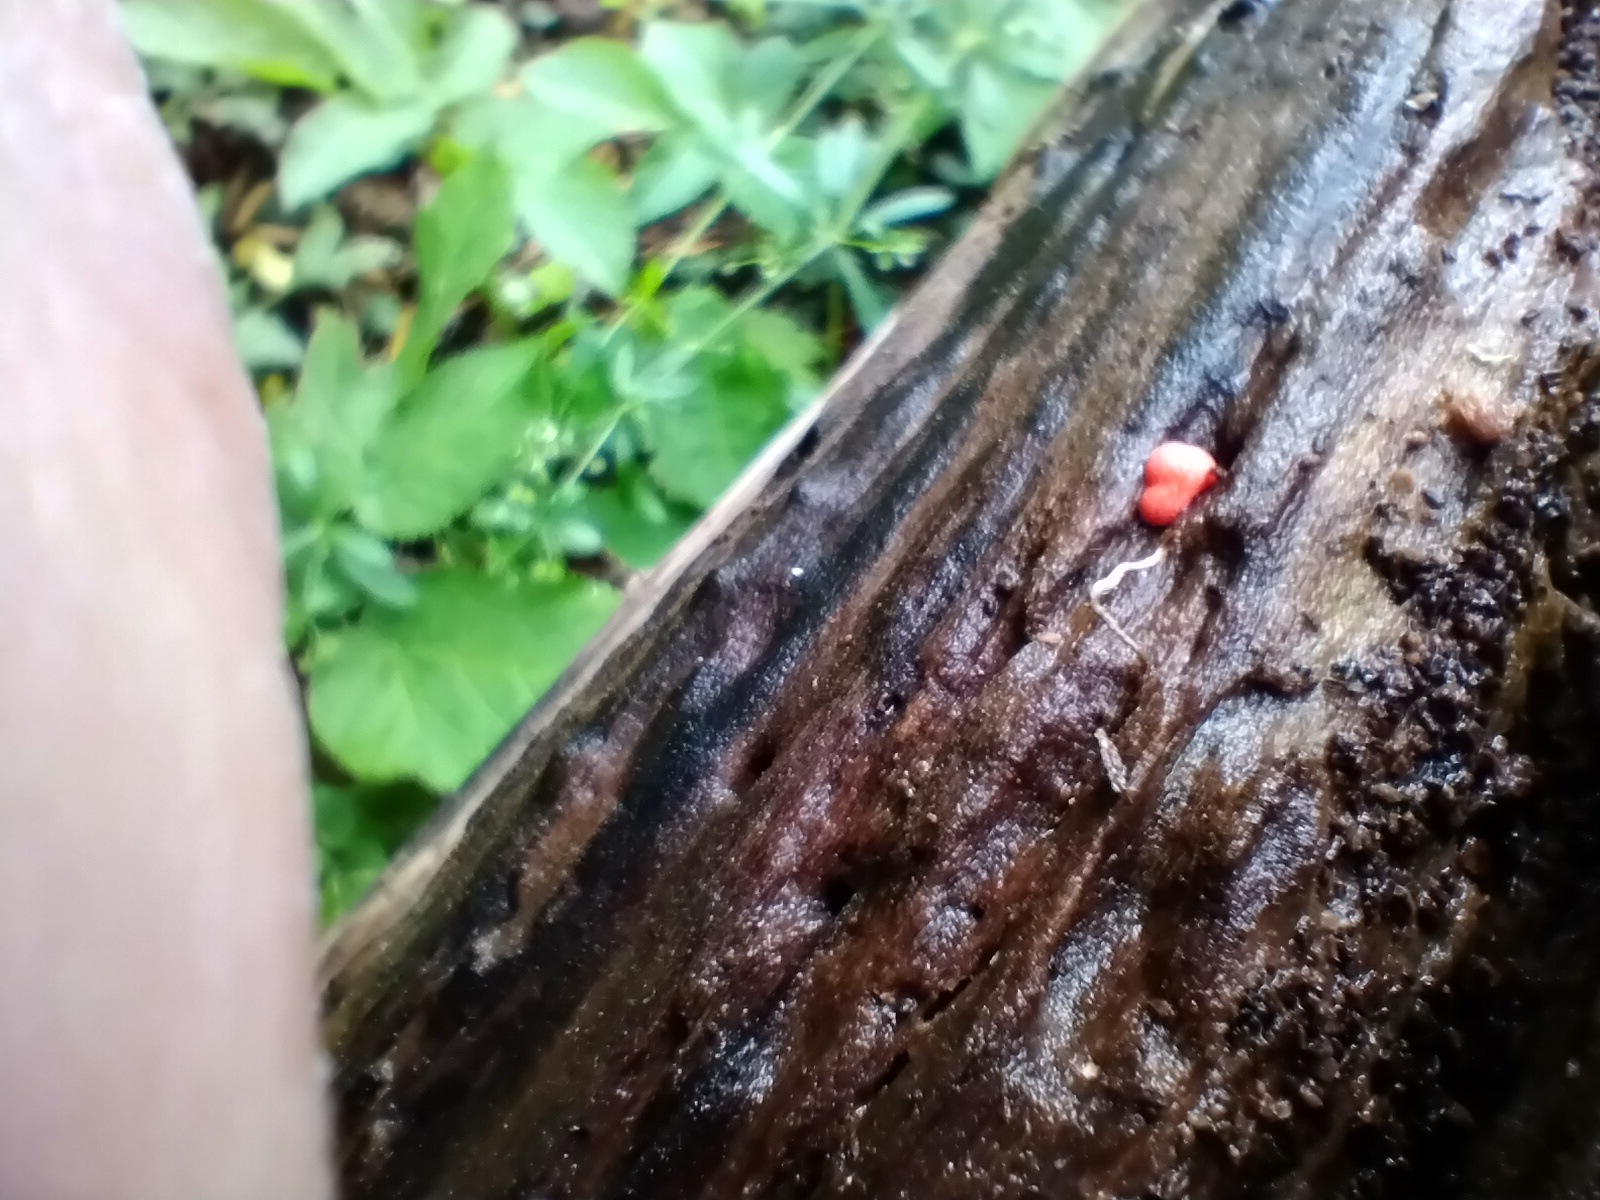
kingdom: Protozoa
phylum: Mycetozoa
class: Myxomycetes
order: Cribrariales
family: Tubiferaceae
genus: Lycogala
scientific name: Lycogala epidendrum
